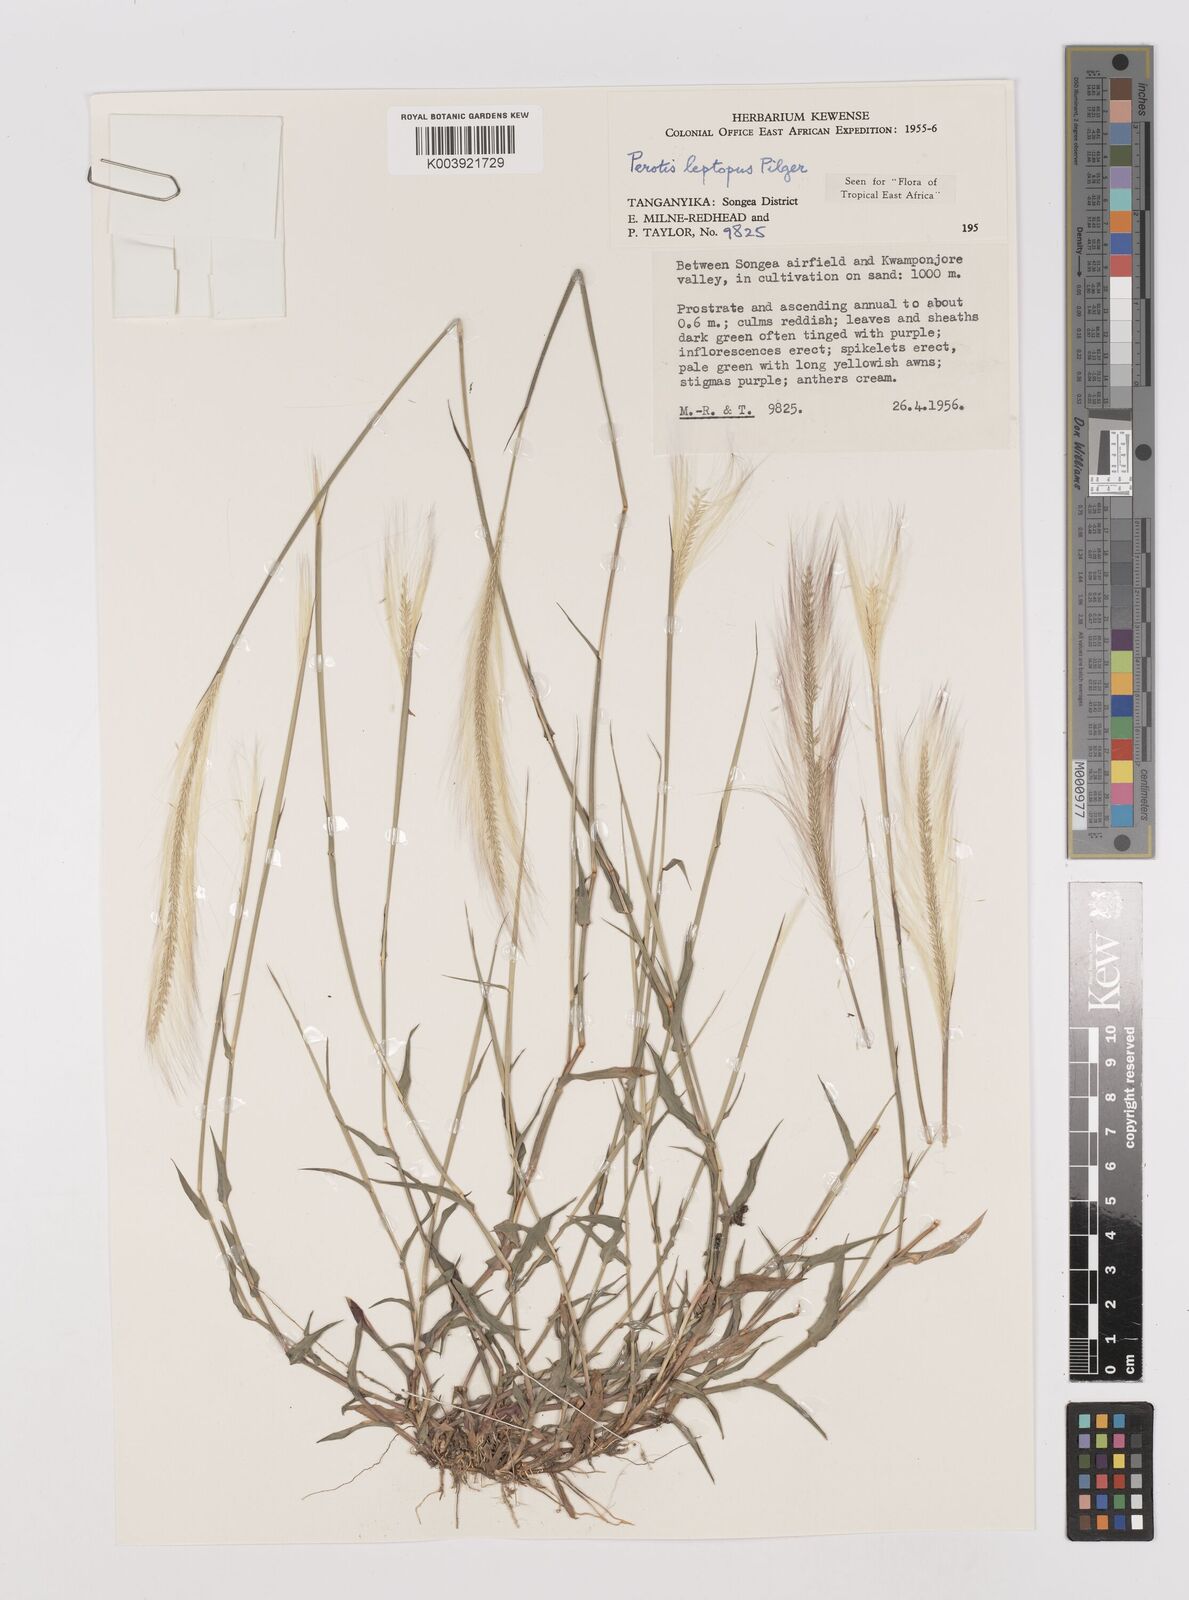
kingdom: Plantae
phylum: Tracheophyta
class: Liliopsida
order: Poales
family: Poaceae
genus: Perotis
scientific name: Perotis leptopus
